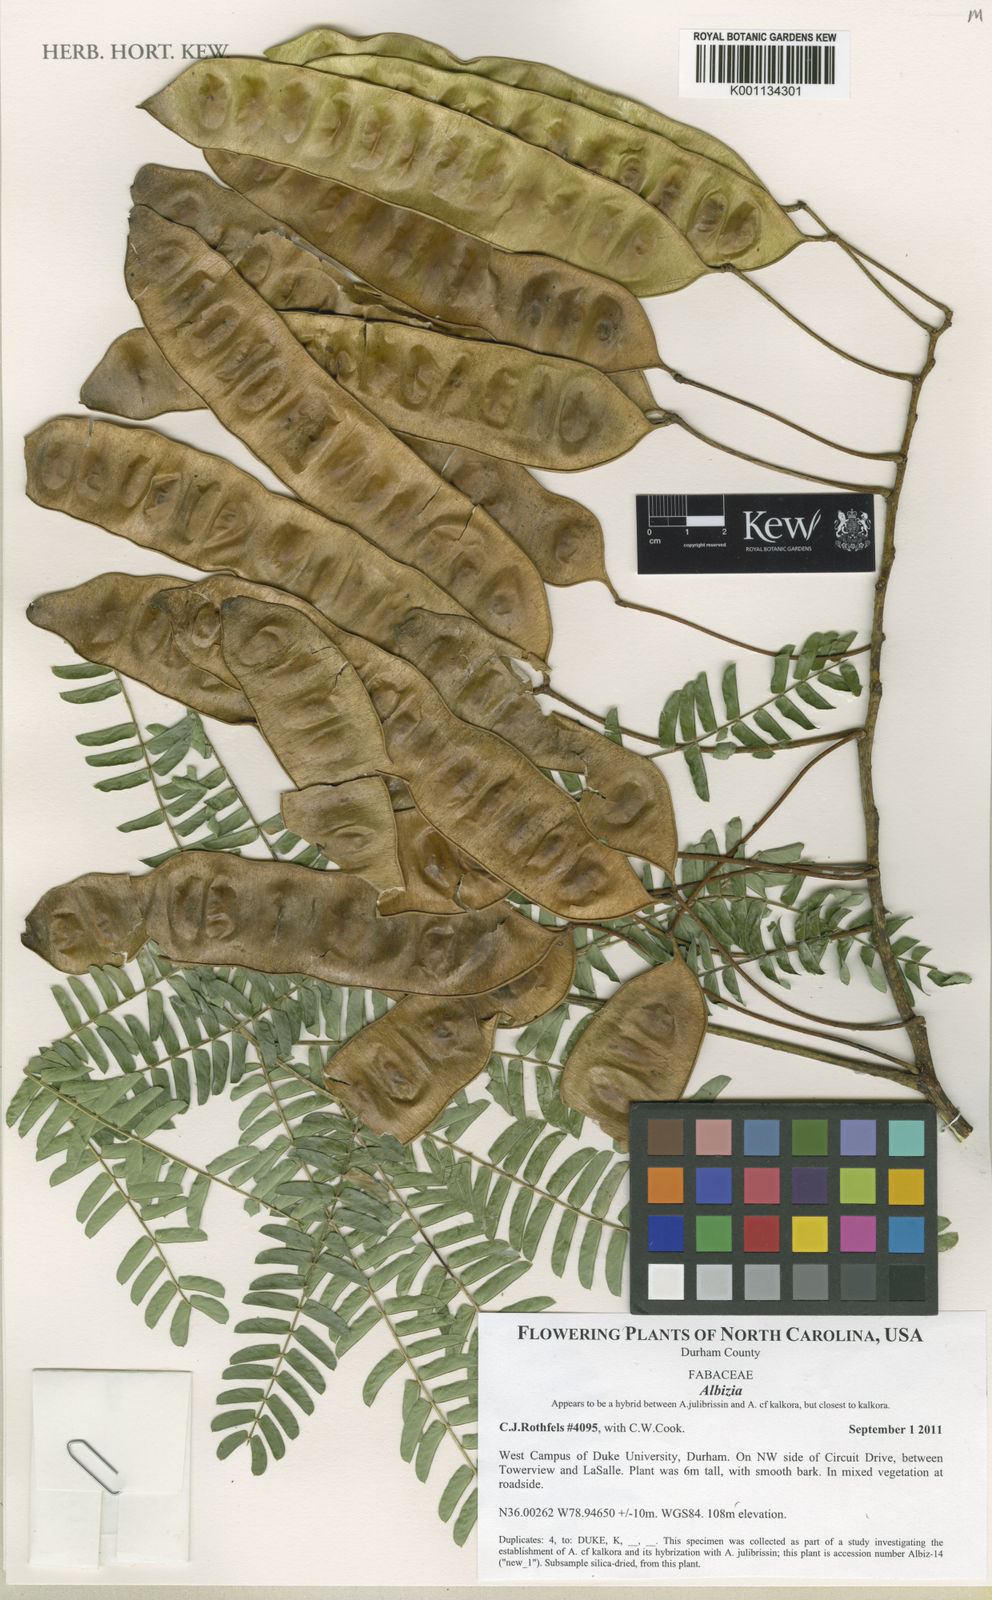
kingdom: Plantae
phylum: Tracheophyta
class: Magnoliopsida
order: Fabales
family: Fabaceae
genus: Albizia
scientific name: Albizia
